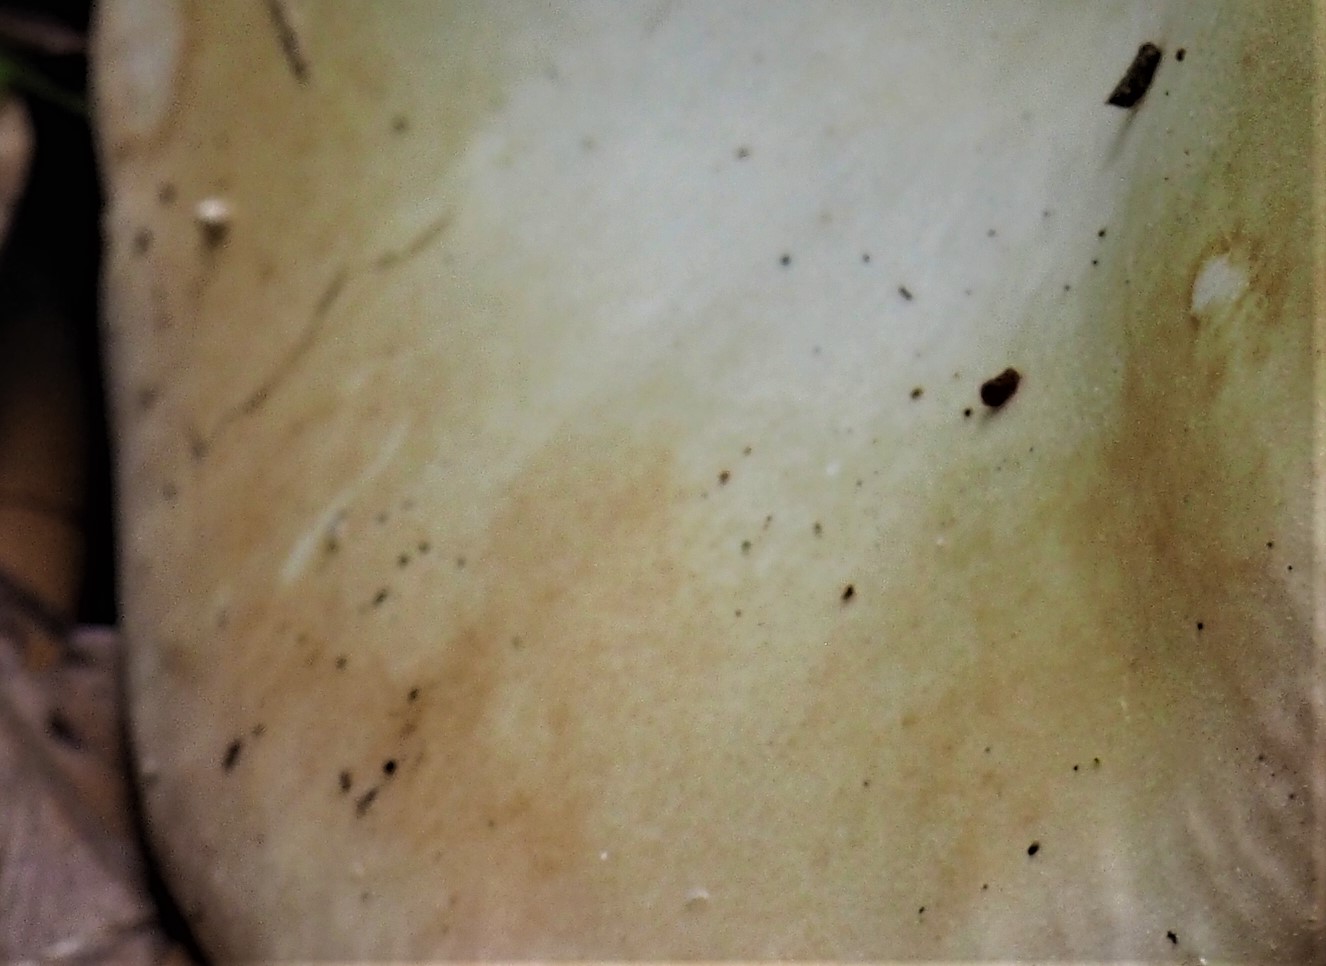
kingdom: Fungi
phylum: Basidiomycota
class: Agaricomycetes
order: Russulales
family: Russulaceae
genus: Russula
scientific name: Russula roseoaurantia
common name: kornet skørhat
